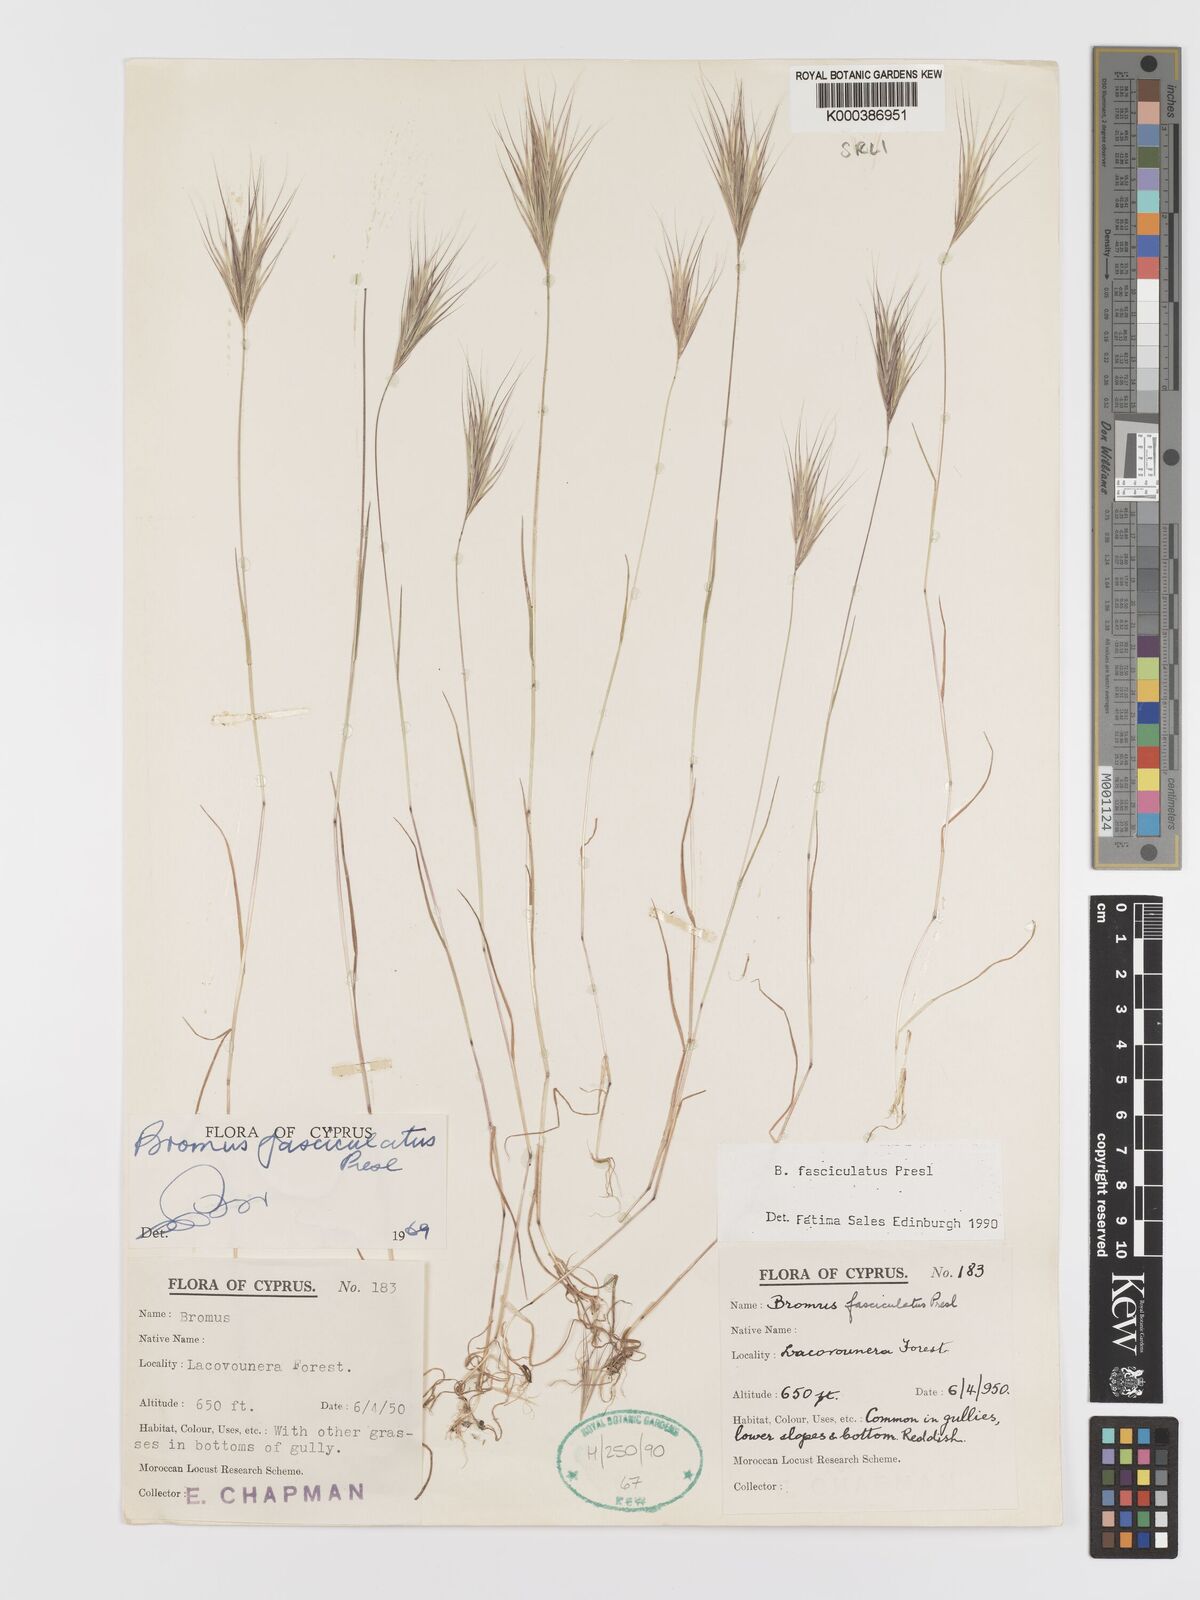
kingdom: Plantae
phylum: Tracheophyta
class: Liliopsida
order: Poales
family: Poaceae
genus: Bromus
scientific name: Bromus fasciculatus
